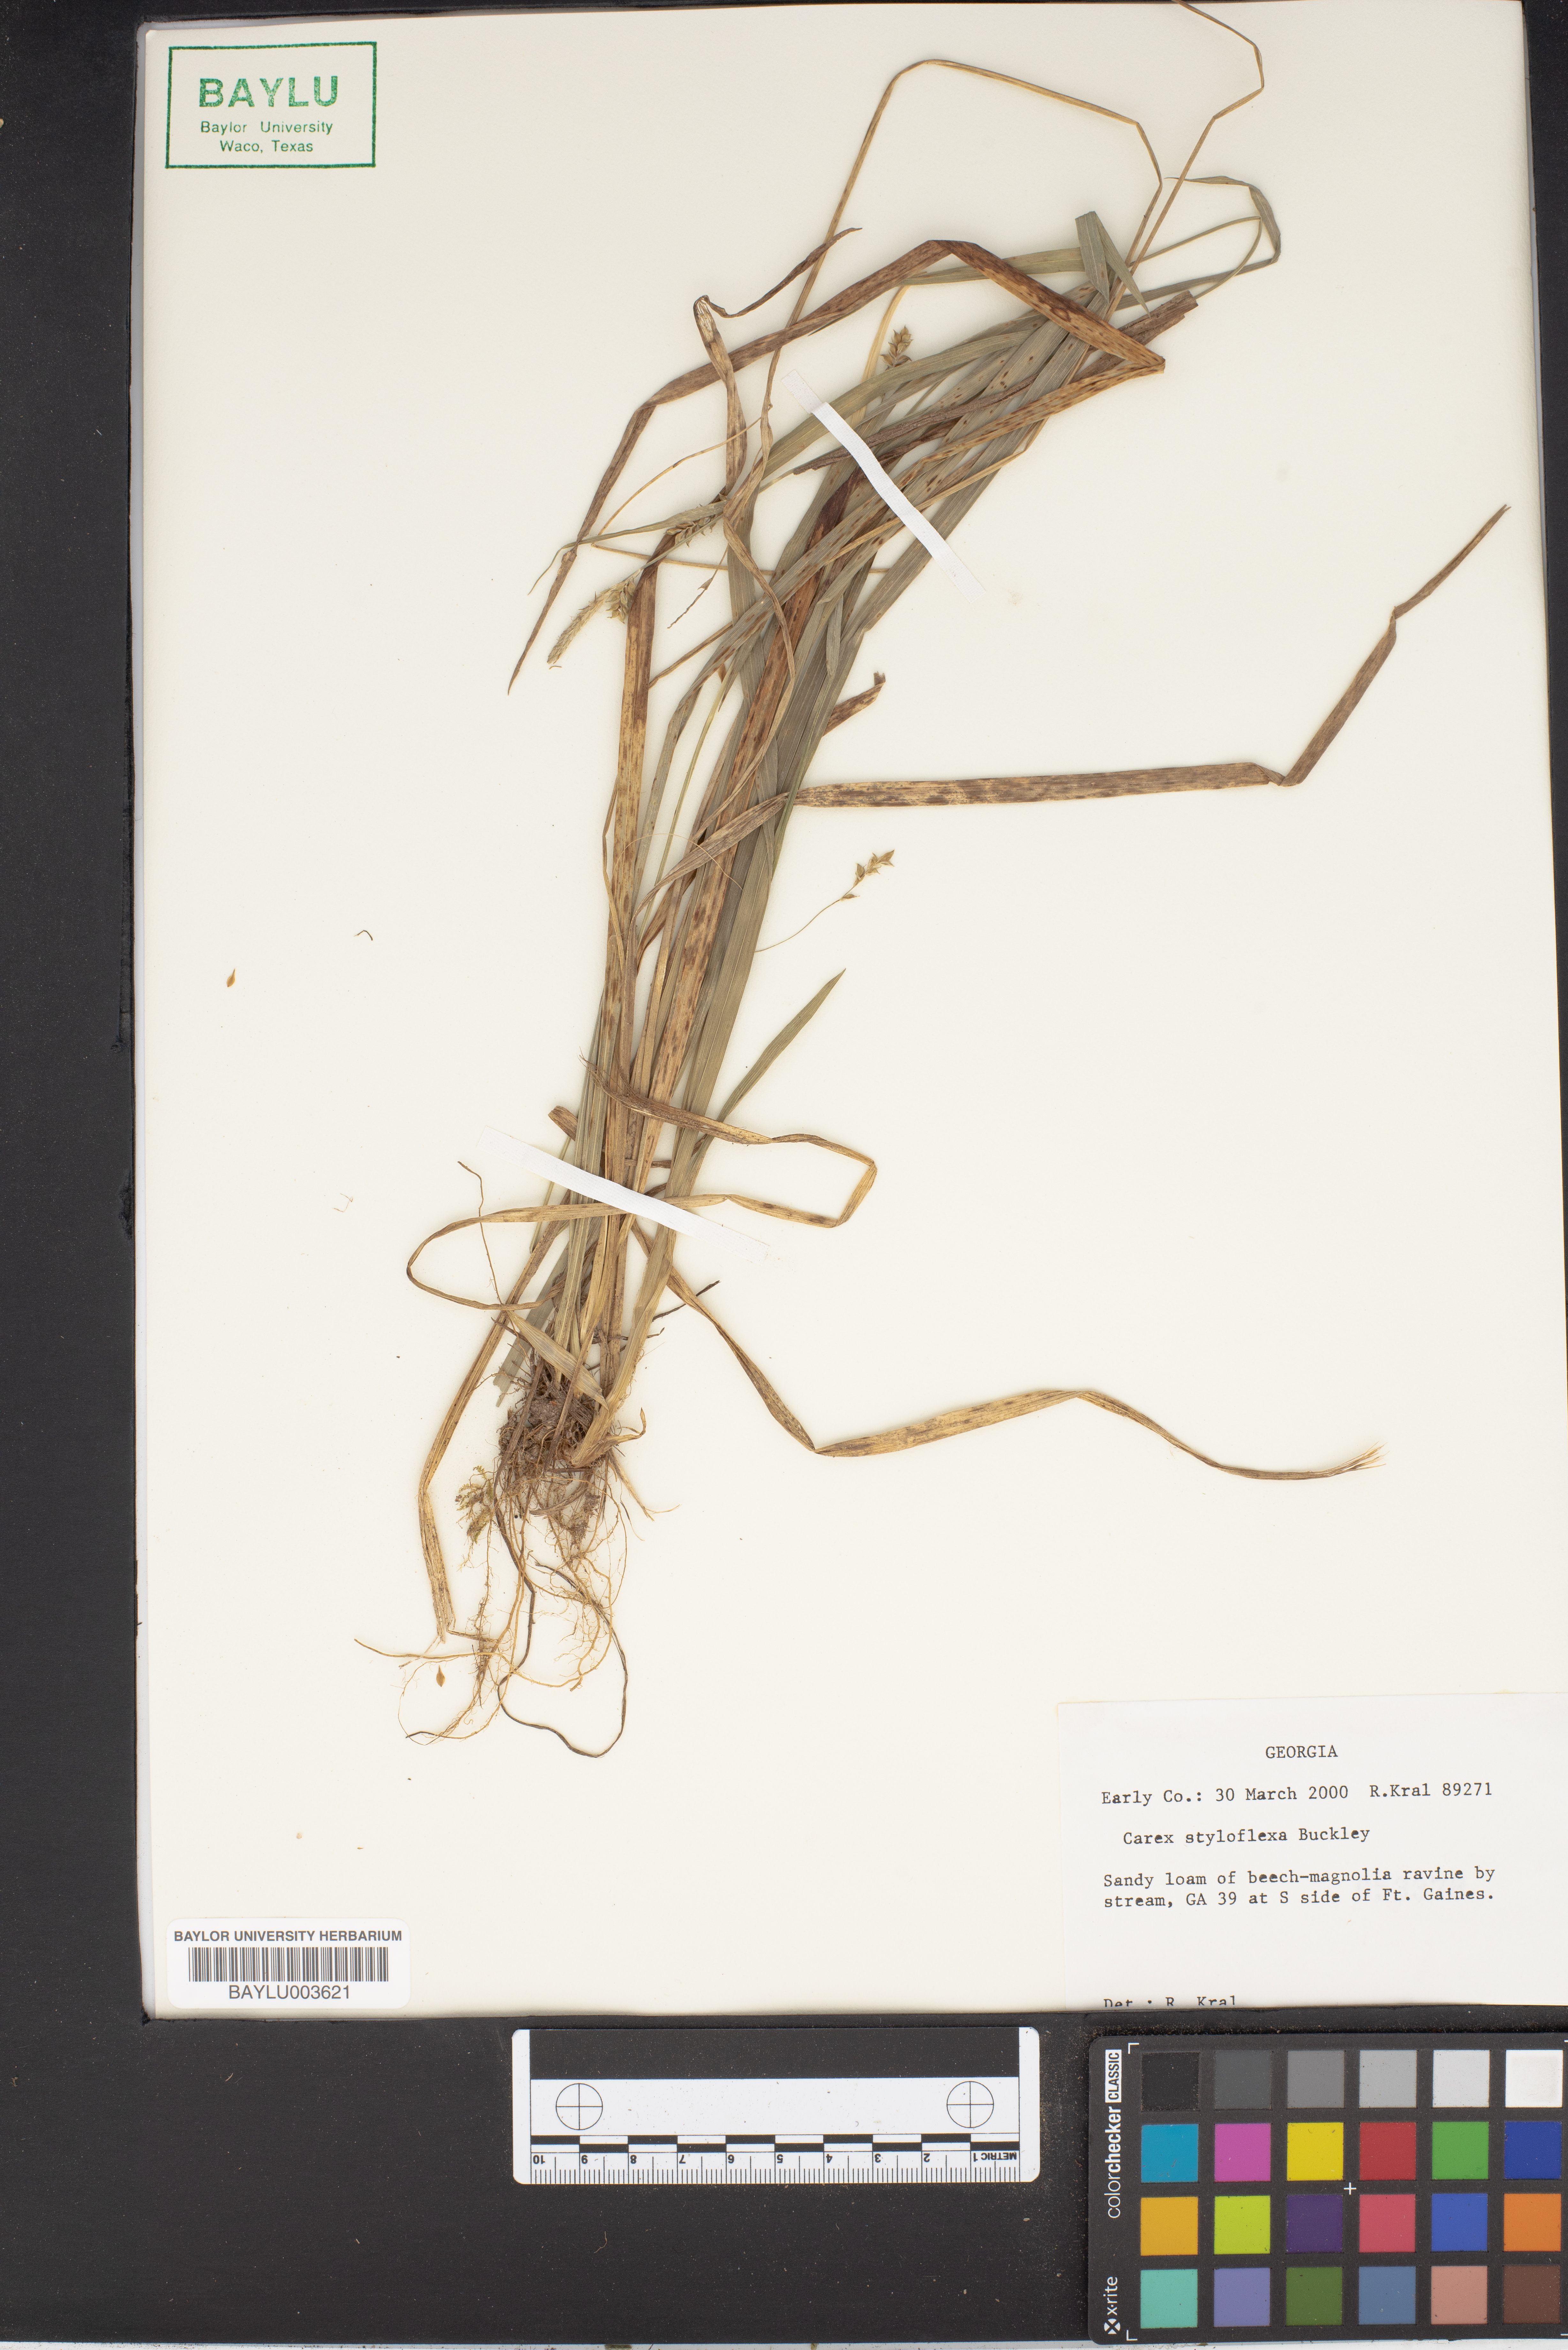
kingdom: Plantae
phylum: Tracheophyta
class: Liliopsida
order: Poales
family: Cyperaceae
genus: Carex
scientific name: Carex styloflexa
